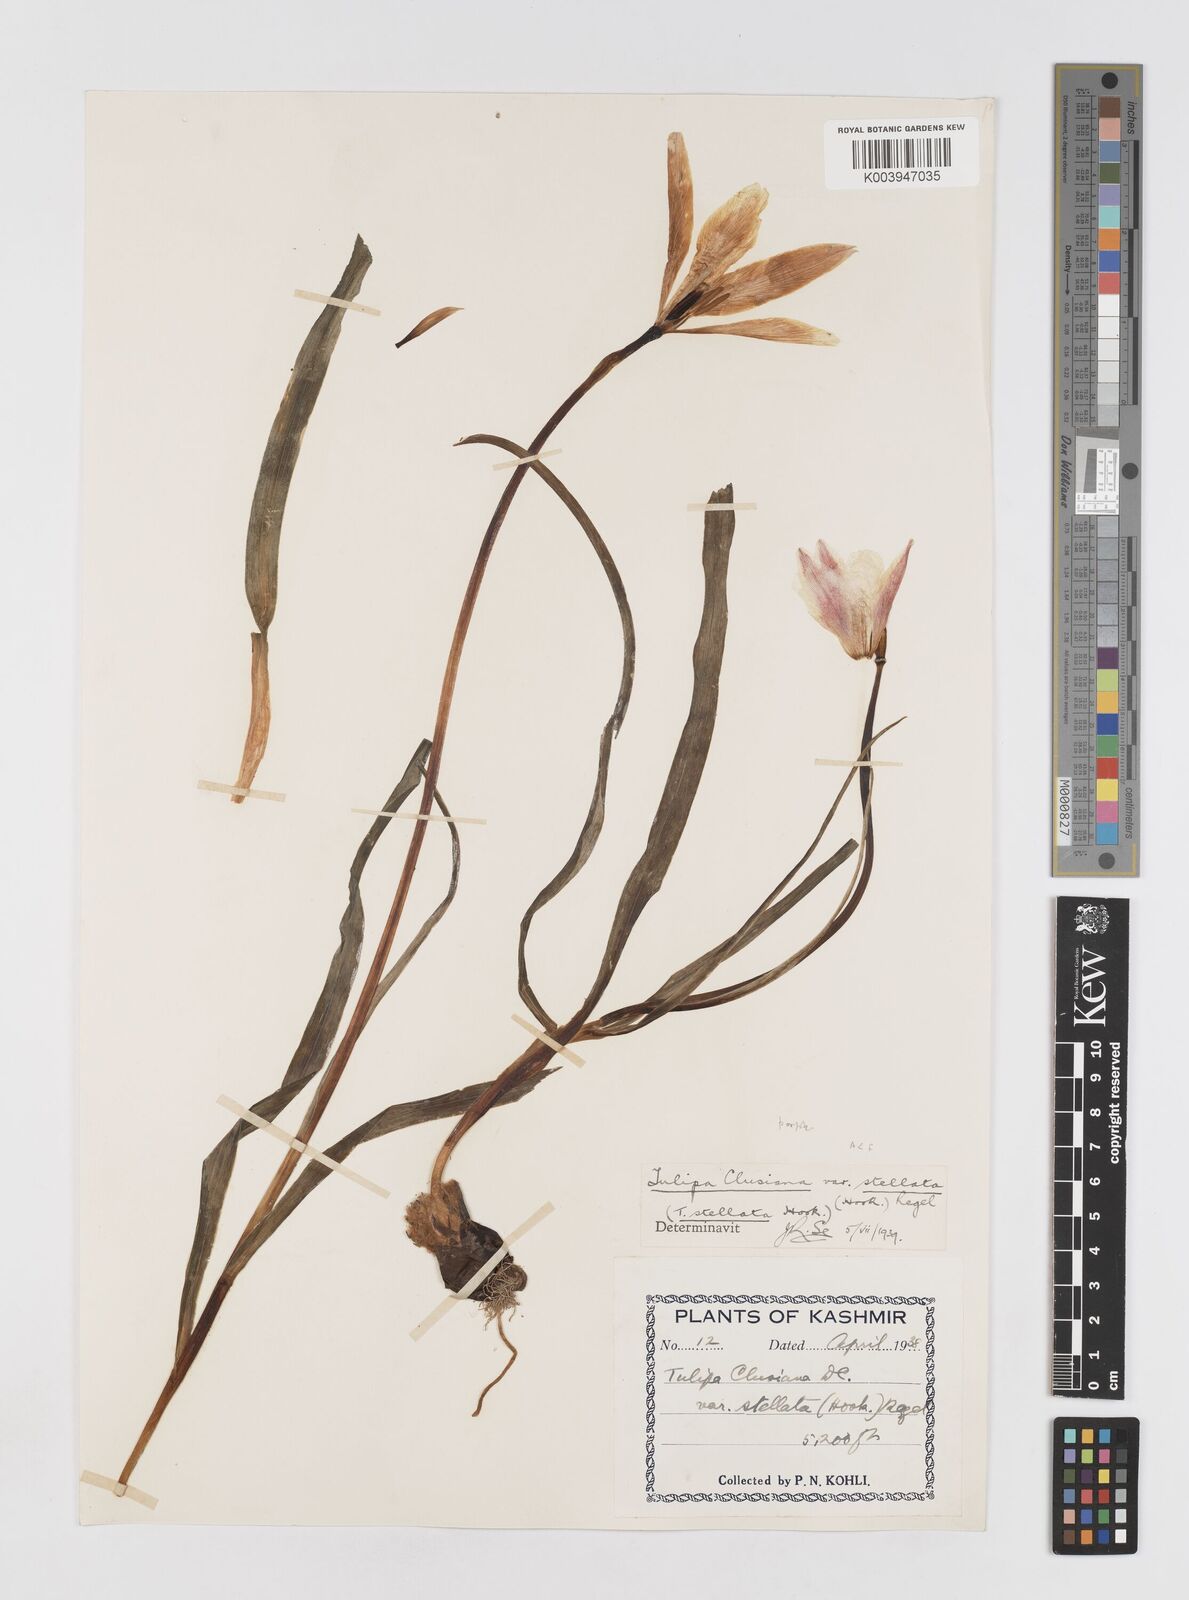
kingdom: Plantae
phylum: Tracheophyta
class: Liliopsida
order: Liliales
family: Liliaceae
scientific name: Liliaceae
